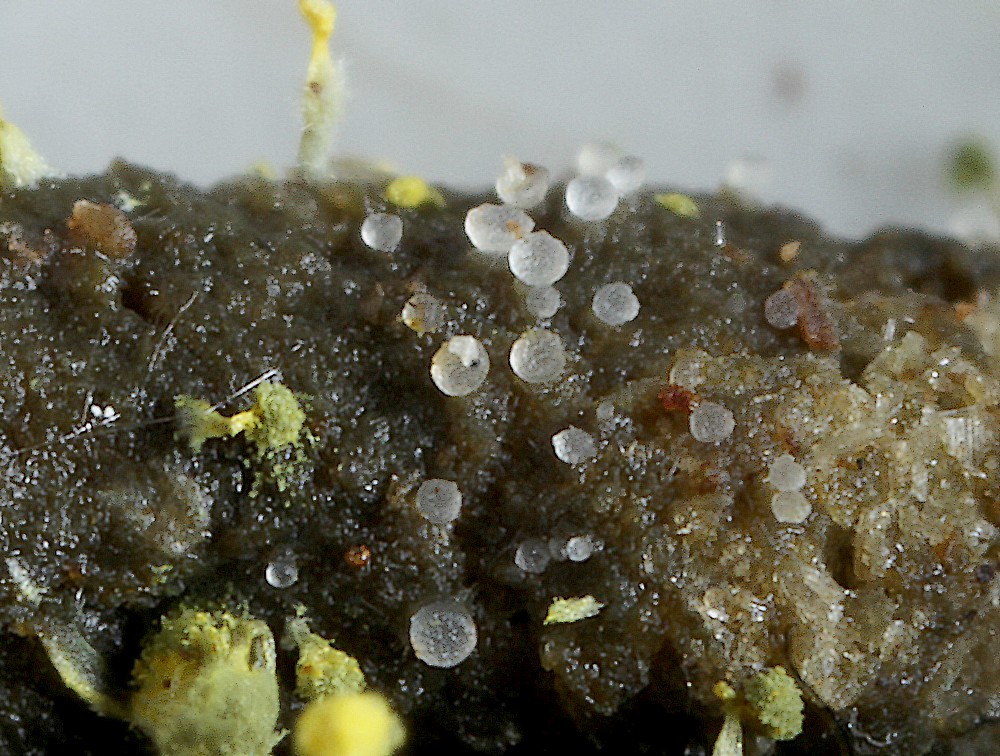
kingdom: Fungi
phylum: Ascomycota
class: Pezizomycetes
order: Pezizales
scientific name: Pezizales
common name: bægersvampordenen
